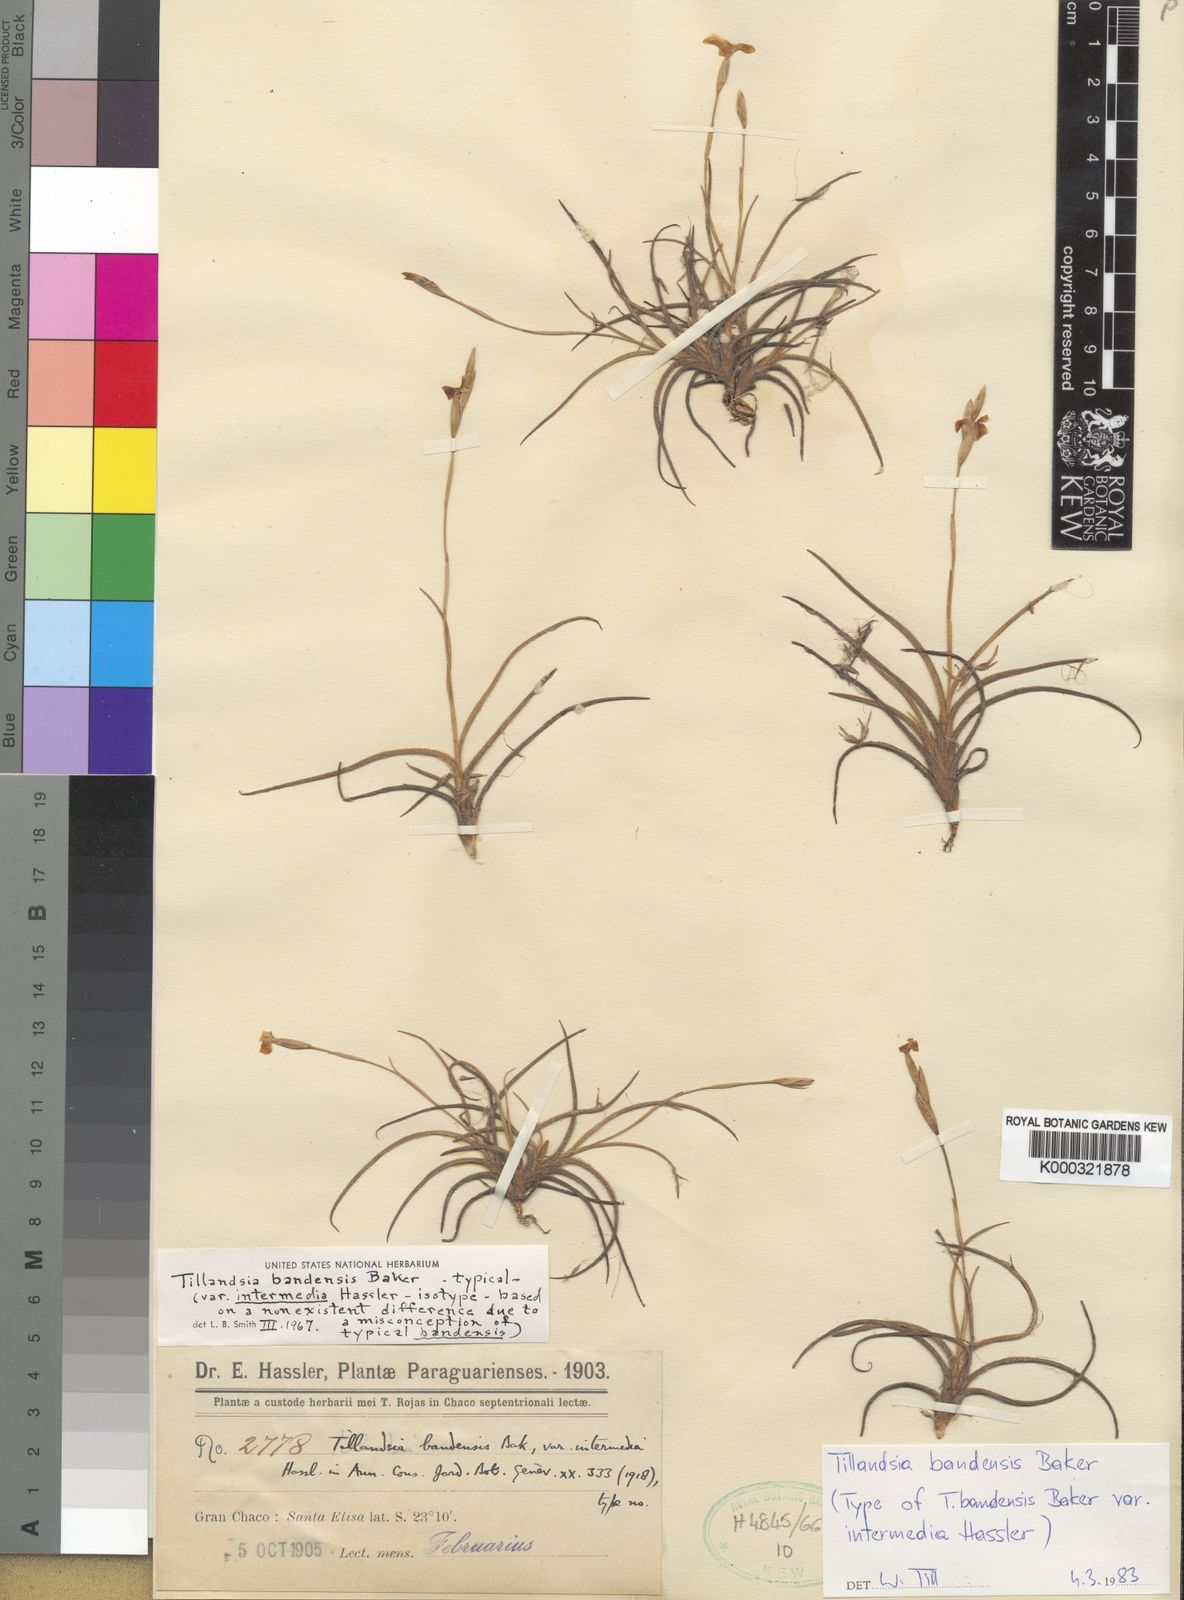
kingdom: Plantae
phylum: Tracheophyta
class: Liliopsida
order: Poales
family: Bromeliaceae
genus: Tillandsia
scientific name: Tillandsia bandensis
